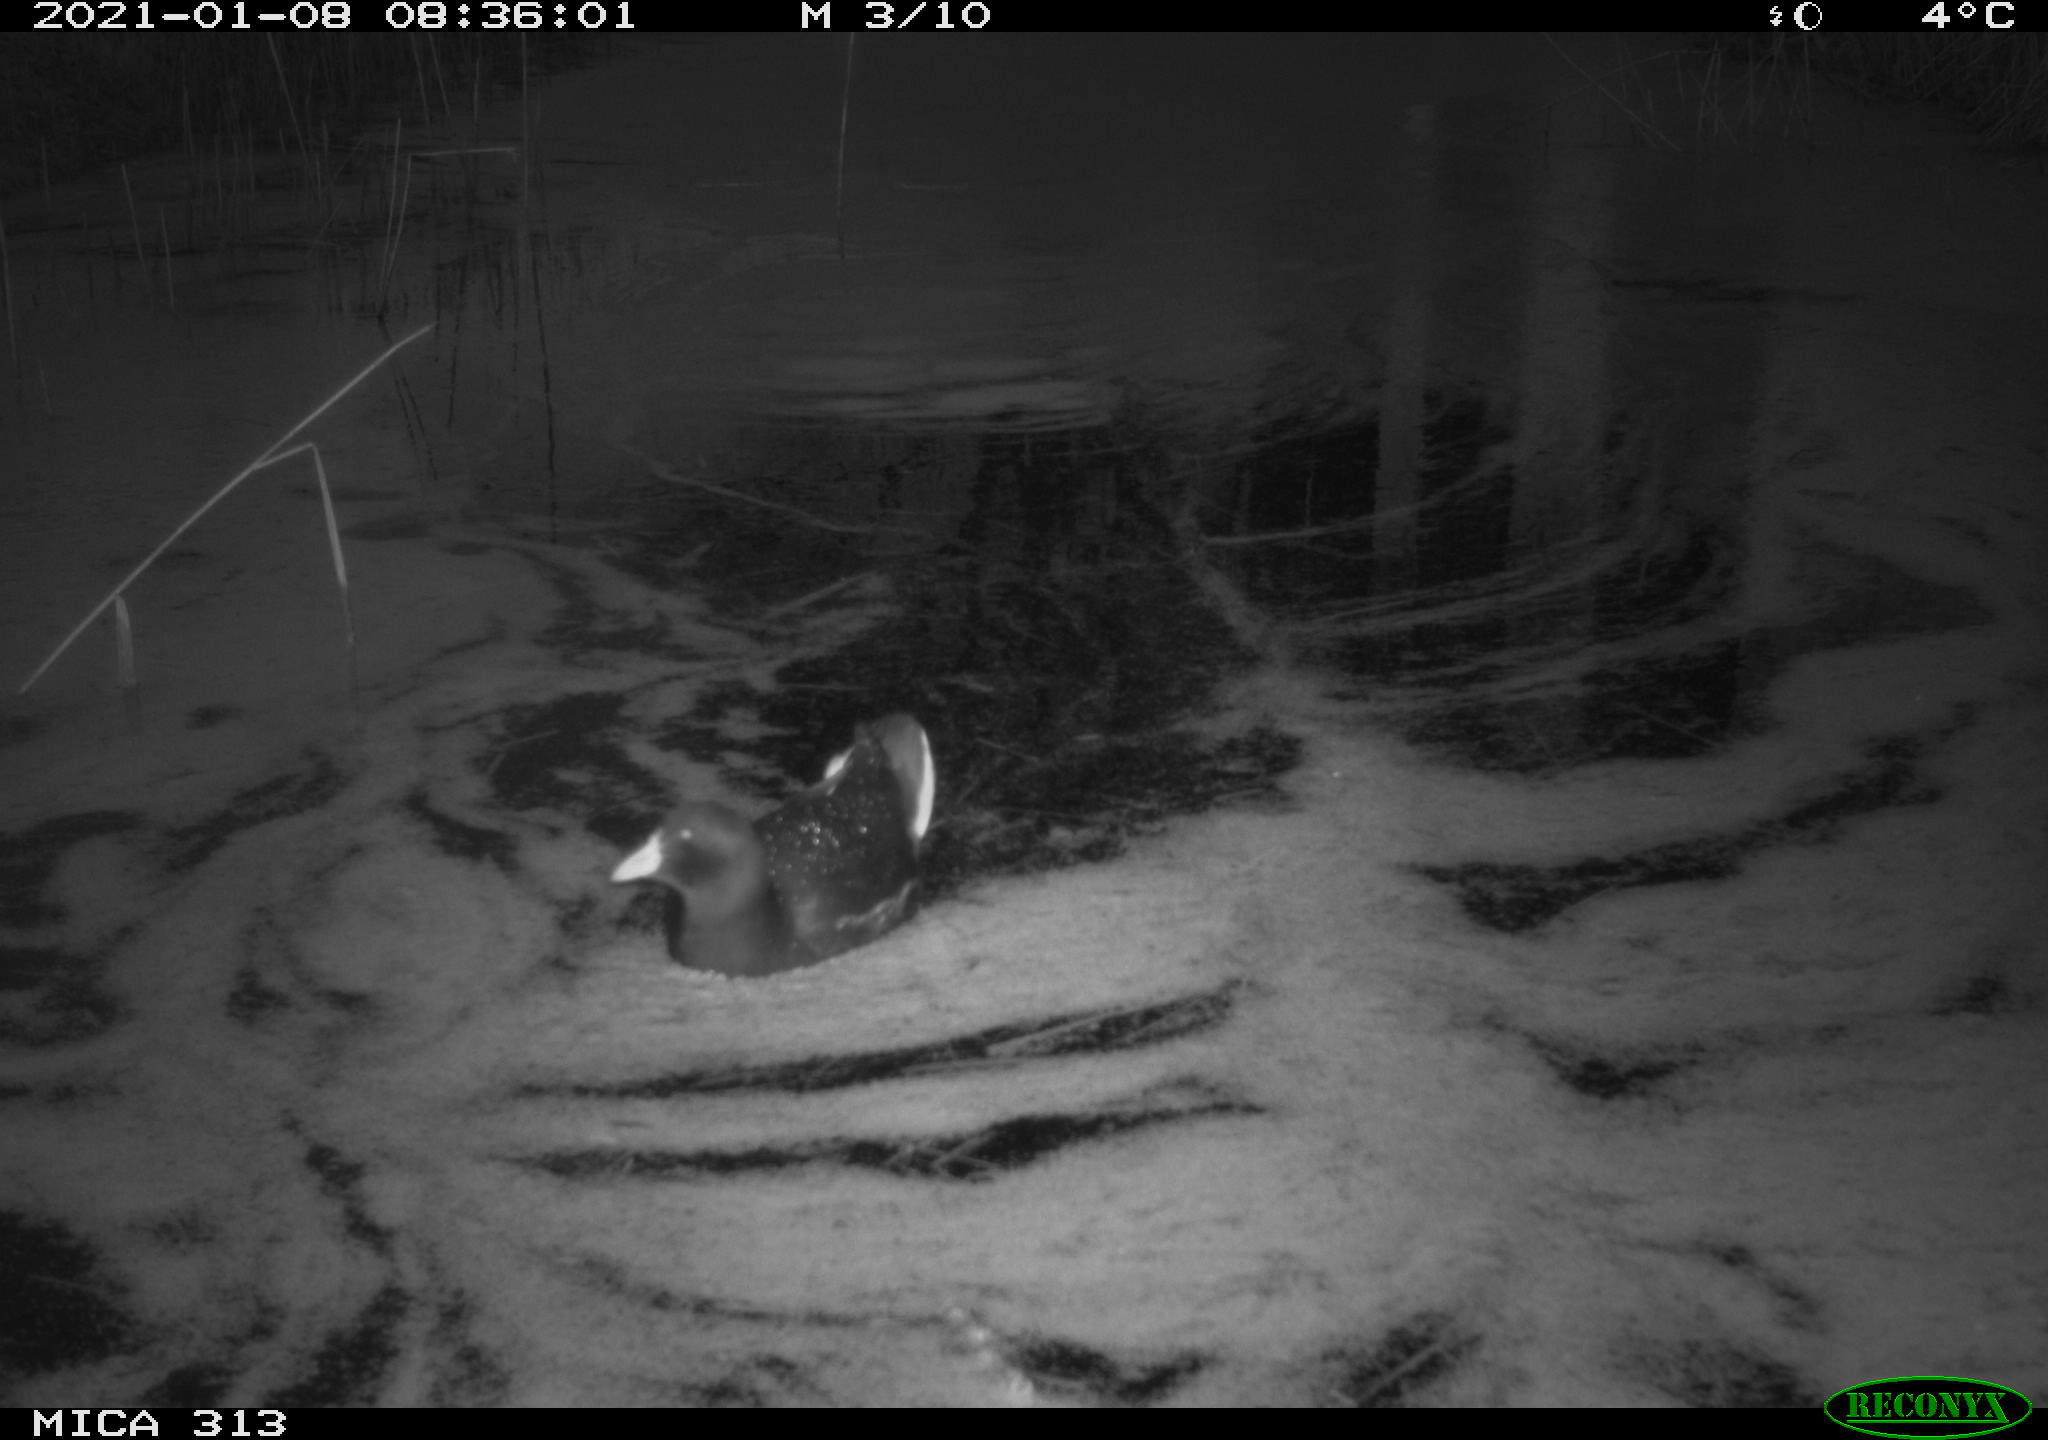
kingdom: Animalia
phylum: Chordata
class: Aves
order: Gruiformes
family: Rallidae
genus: Gallinula
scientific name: Gallinula chloropus
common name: Common moorhen
